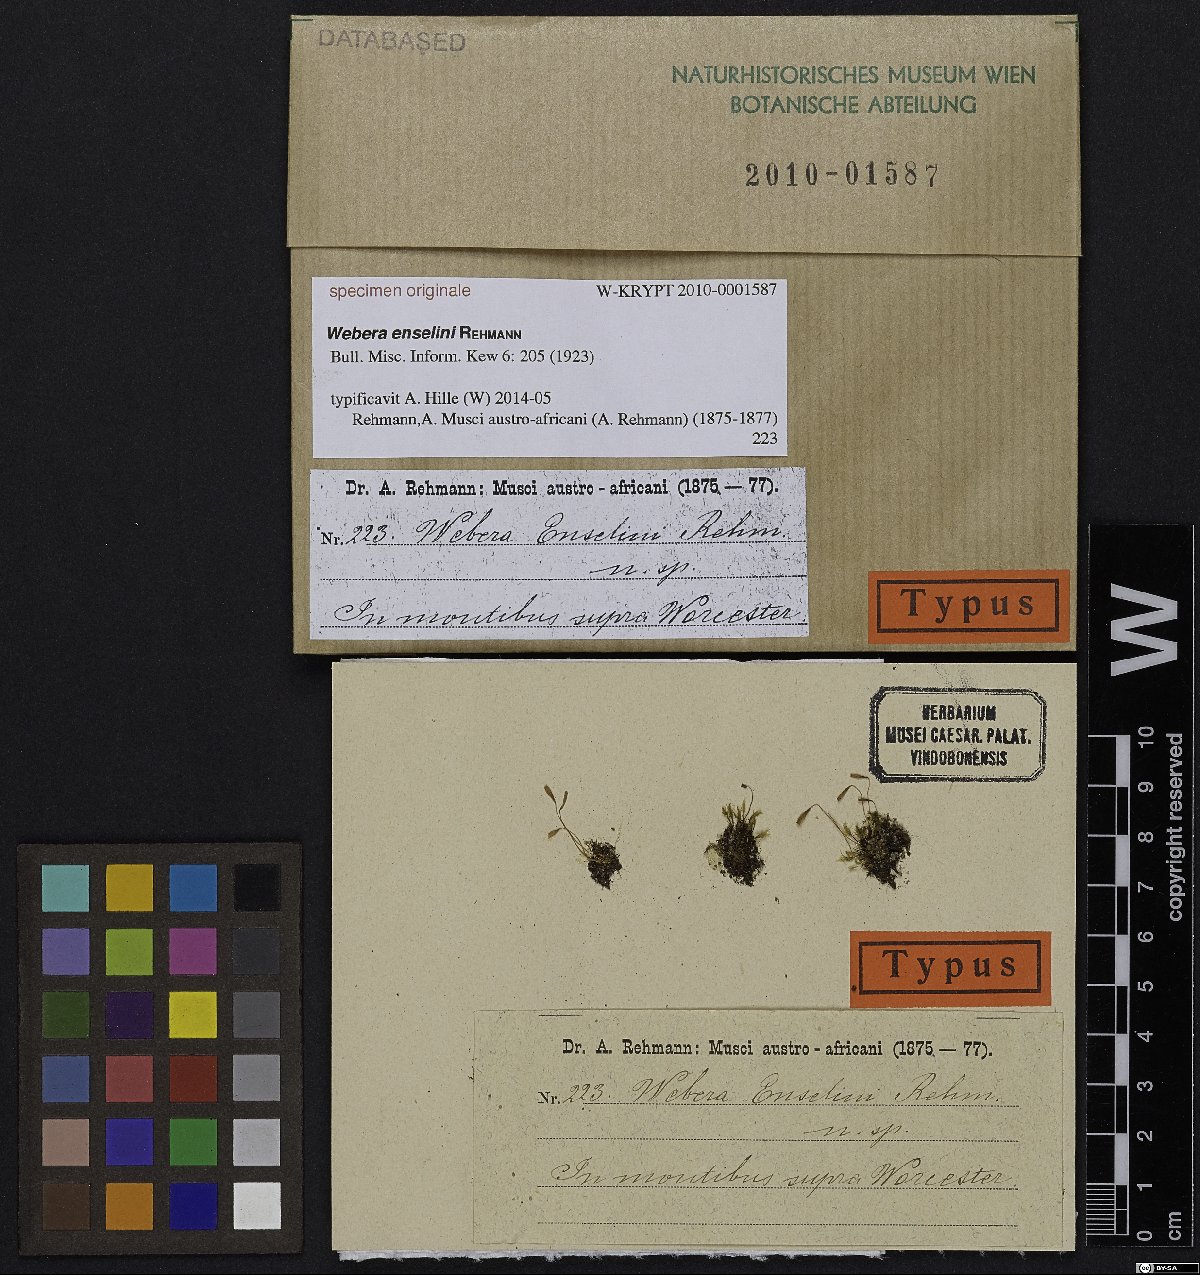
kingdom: Plantae
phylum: Bryophyta
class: Bryopsida
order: Bryales
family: Bryaceae
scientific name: Bryaceae
